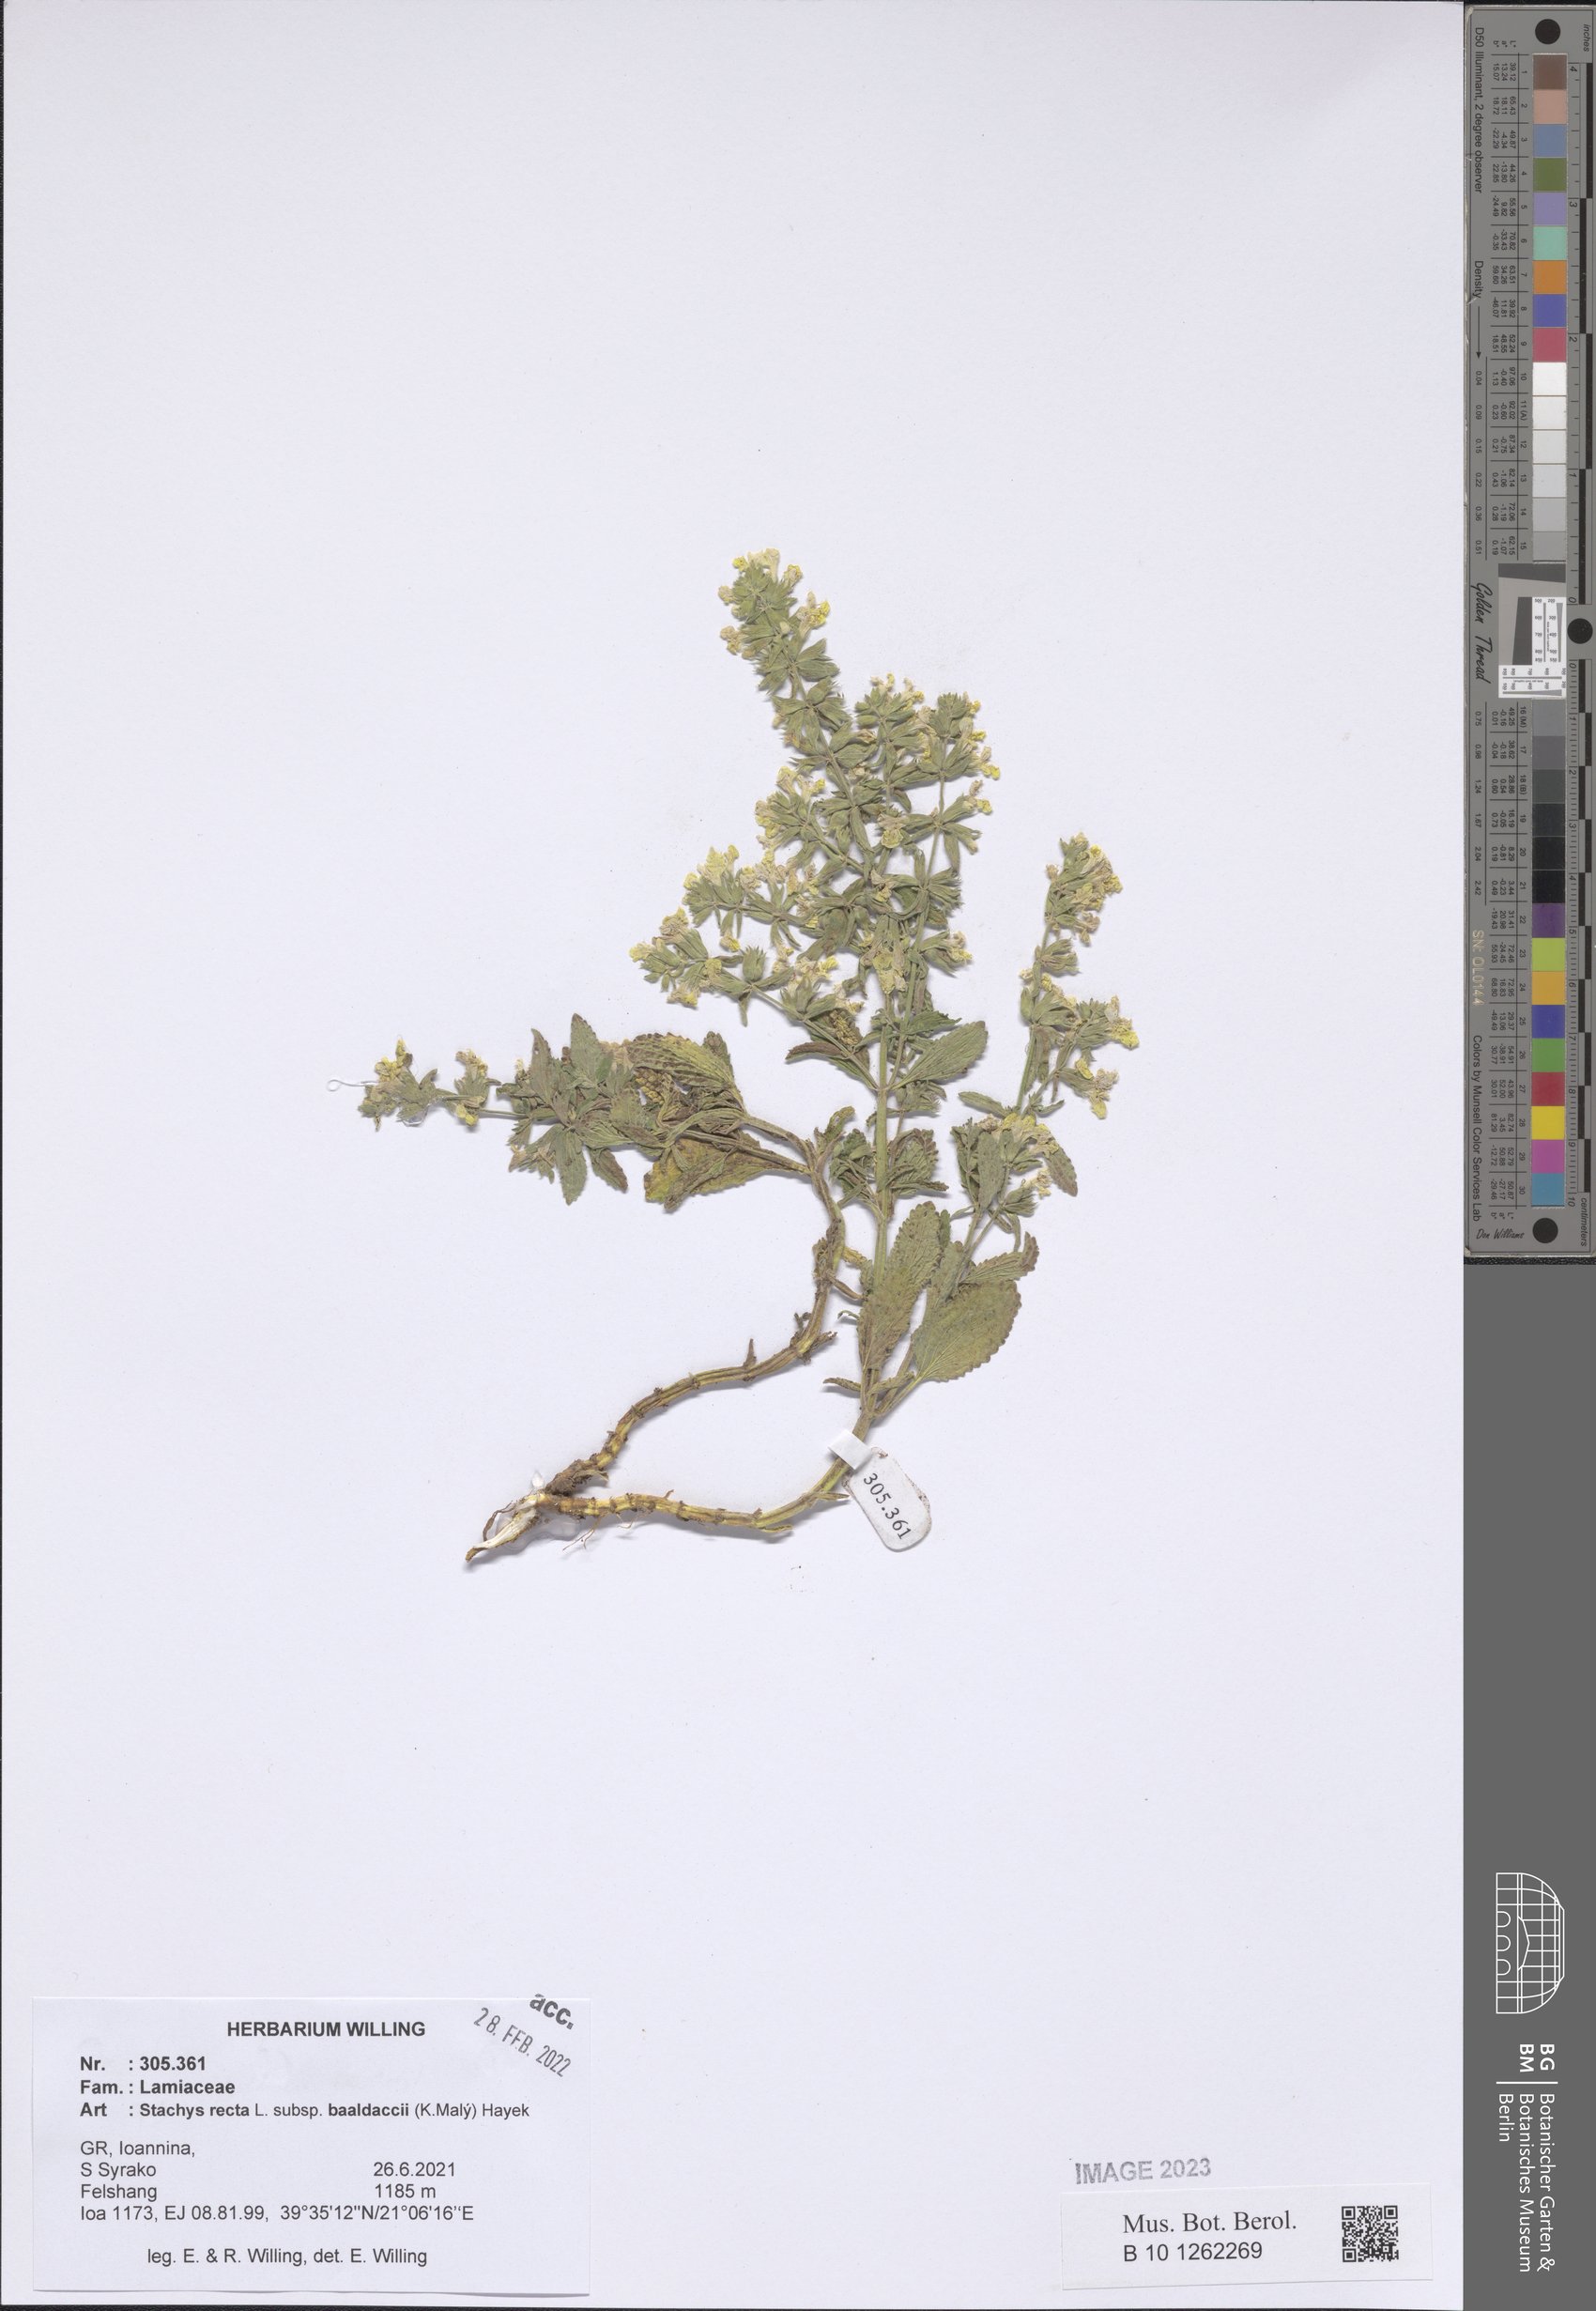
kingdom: Plantae
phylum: Tracheophyta
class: Magnoliopsida
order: Lamiales
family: Lamiaceae
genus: Stachys
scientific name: Stachys recta
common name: Perennial yellow-woundwort
